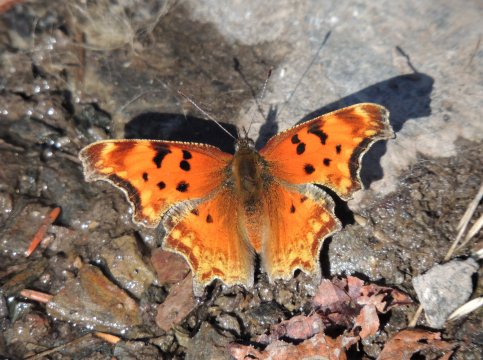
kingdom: Animalia
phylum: Arthropoda
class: Insecta
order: Lepidoptera
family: Nymphalidae
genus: Polygonia
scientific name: Polygonia gracilis
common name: Hoary Comma
